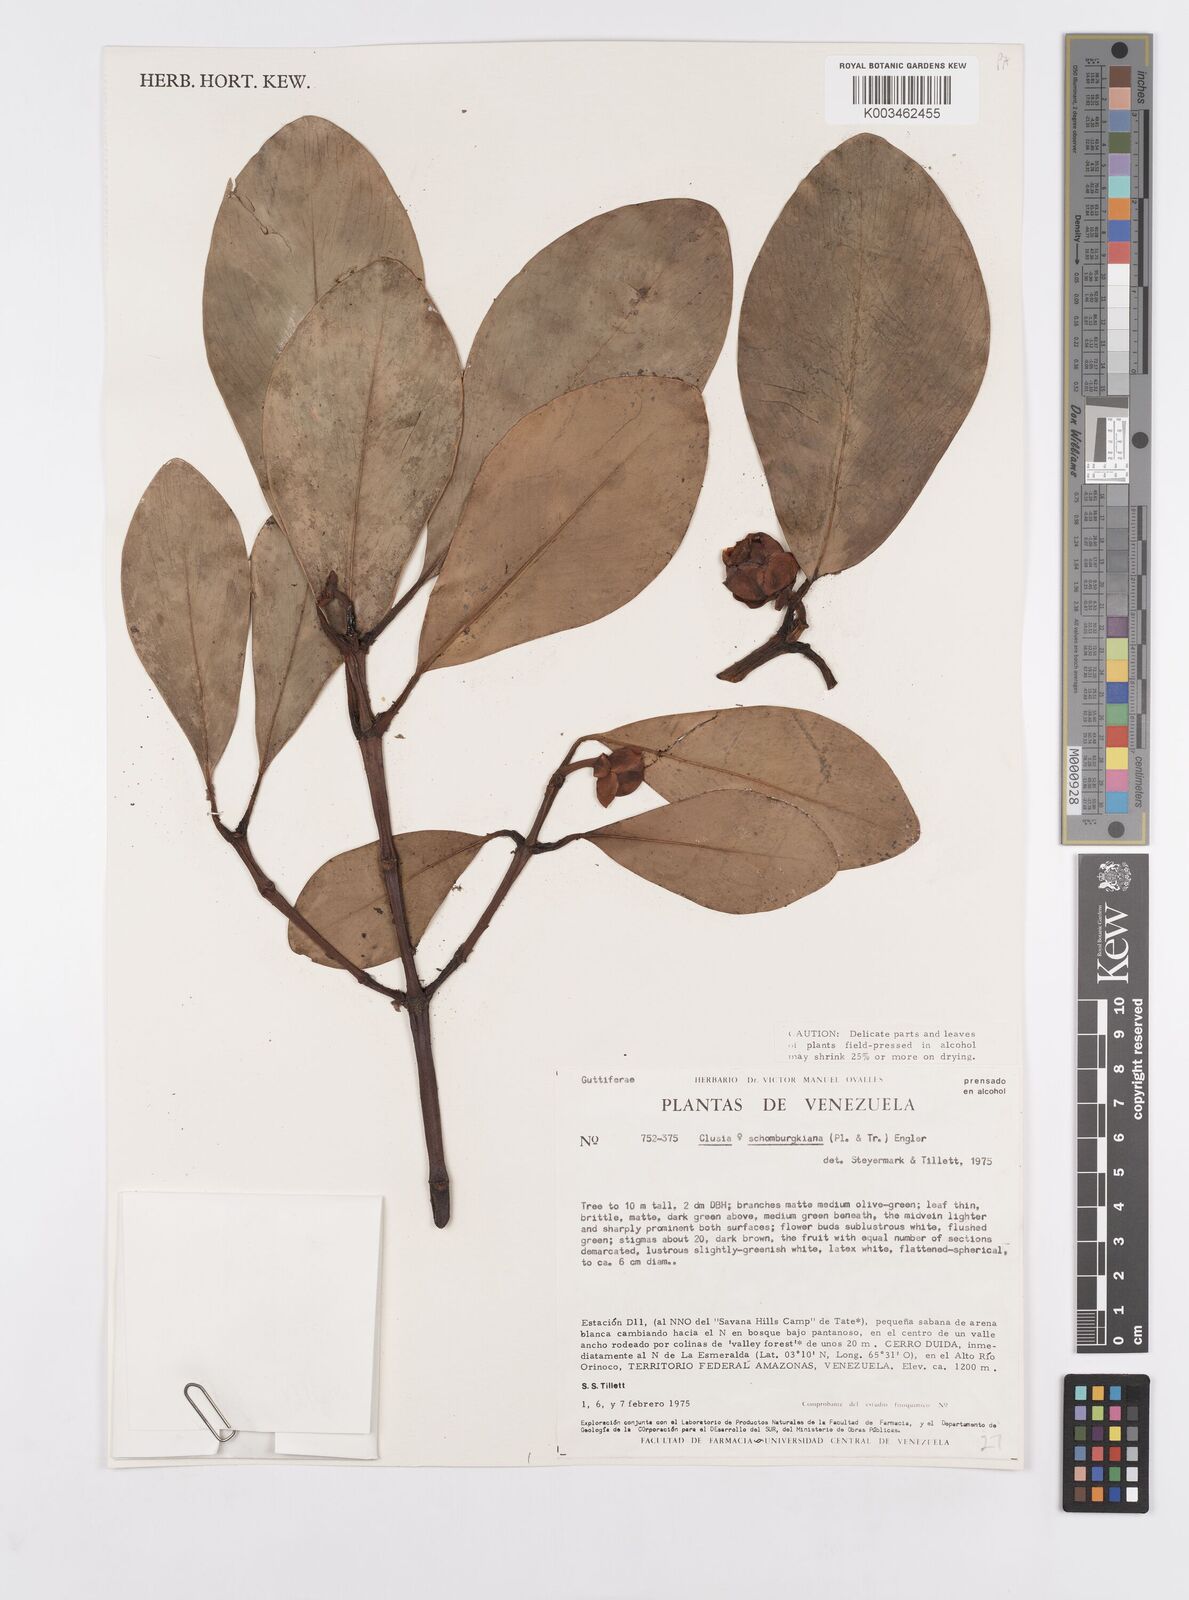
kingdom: Plantae
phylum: Tracheophyta
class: Magnoliopsida
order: Malpighiales
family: Clusiaceae
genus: Clusia
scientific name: Clusia schomburgkiana
